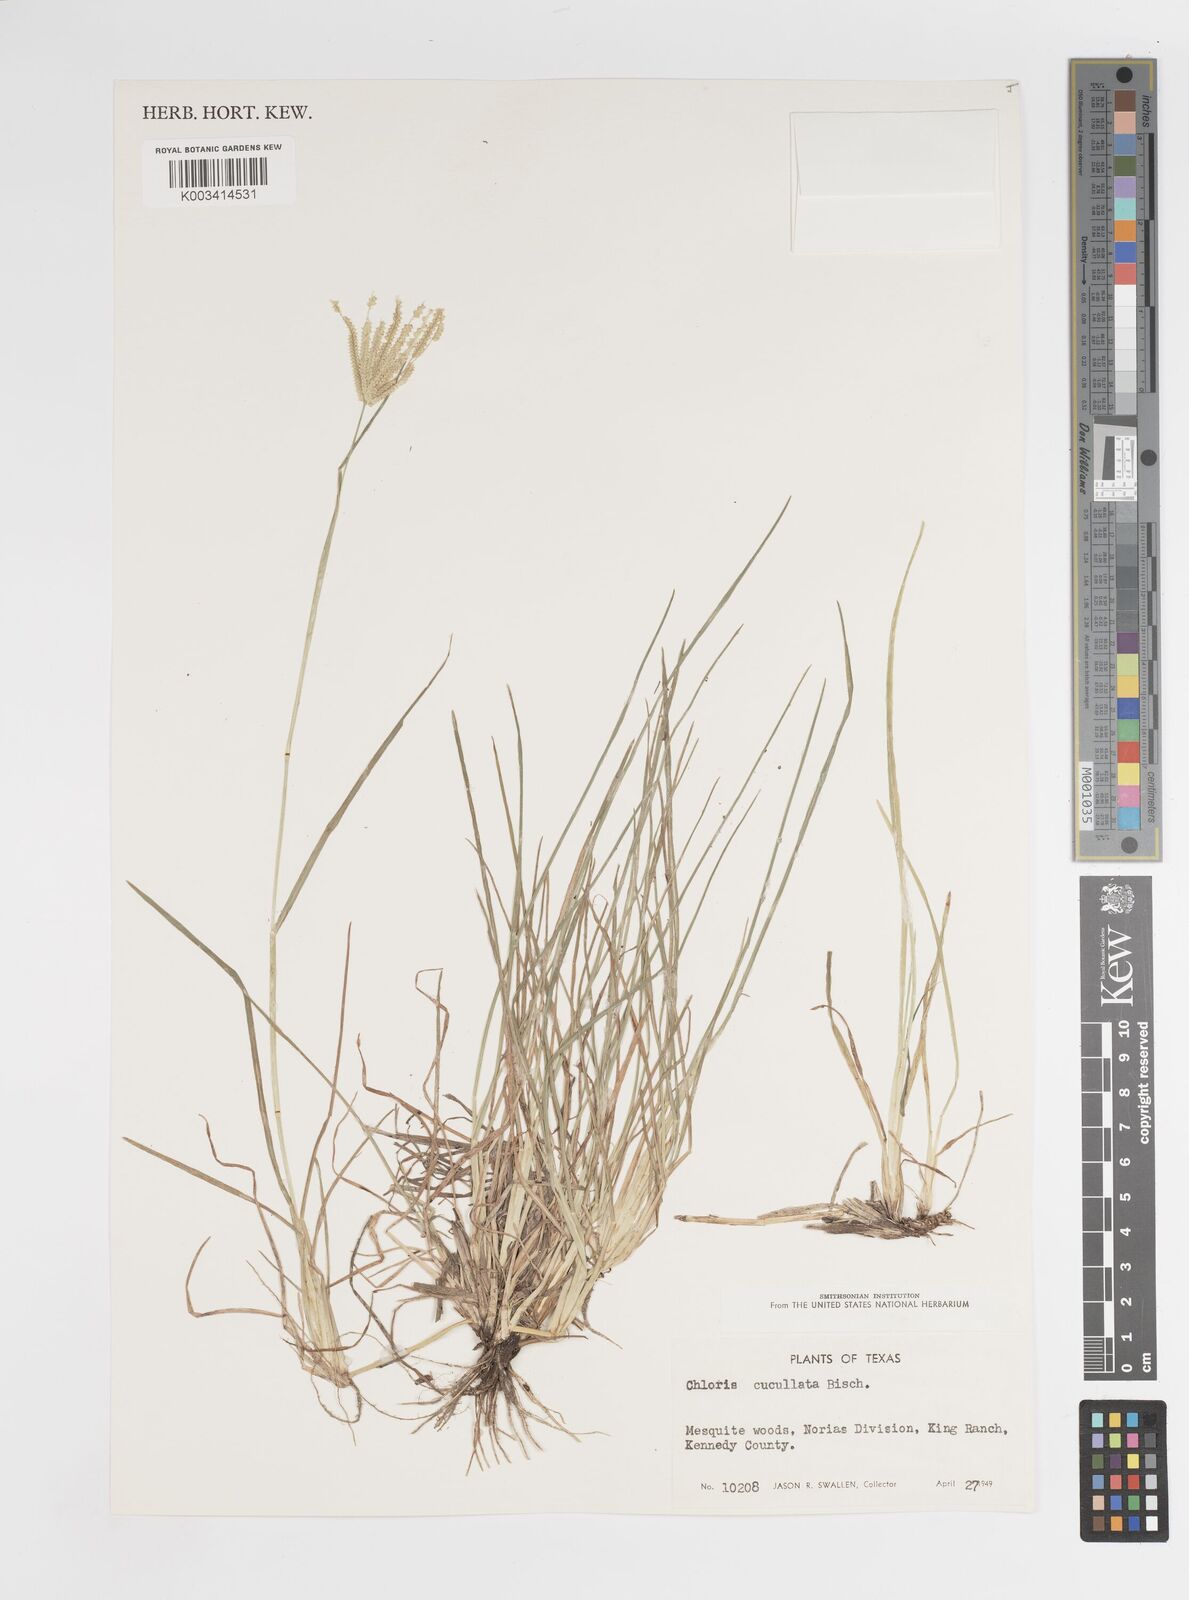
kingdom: Plantae
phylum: Tracheophyta
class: Liliopsida
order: Poales
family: Poaceae
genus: Chloris
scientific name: Chloris cucullata
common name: Hooded windmill grass
